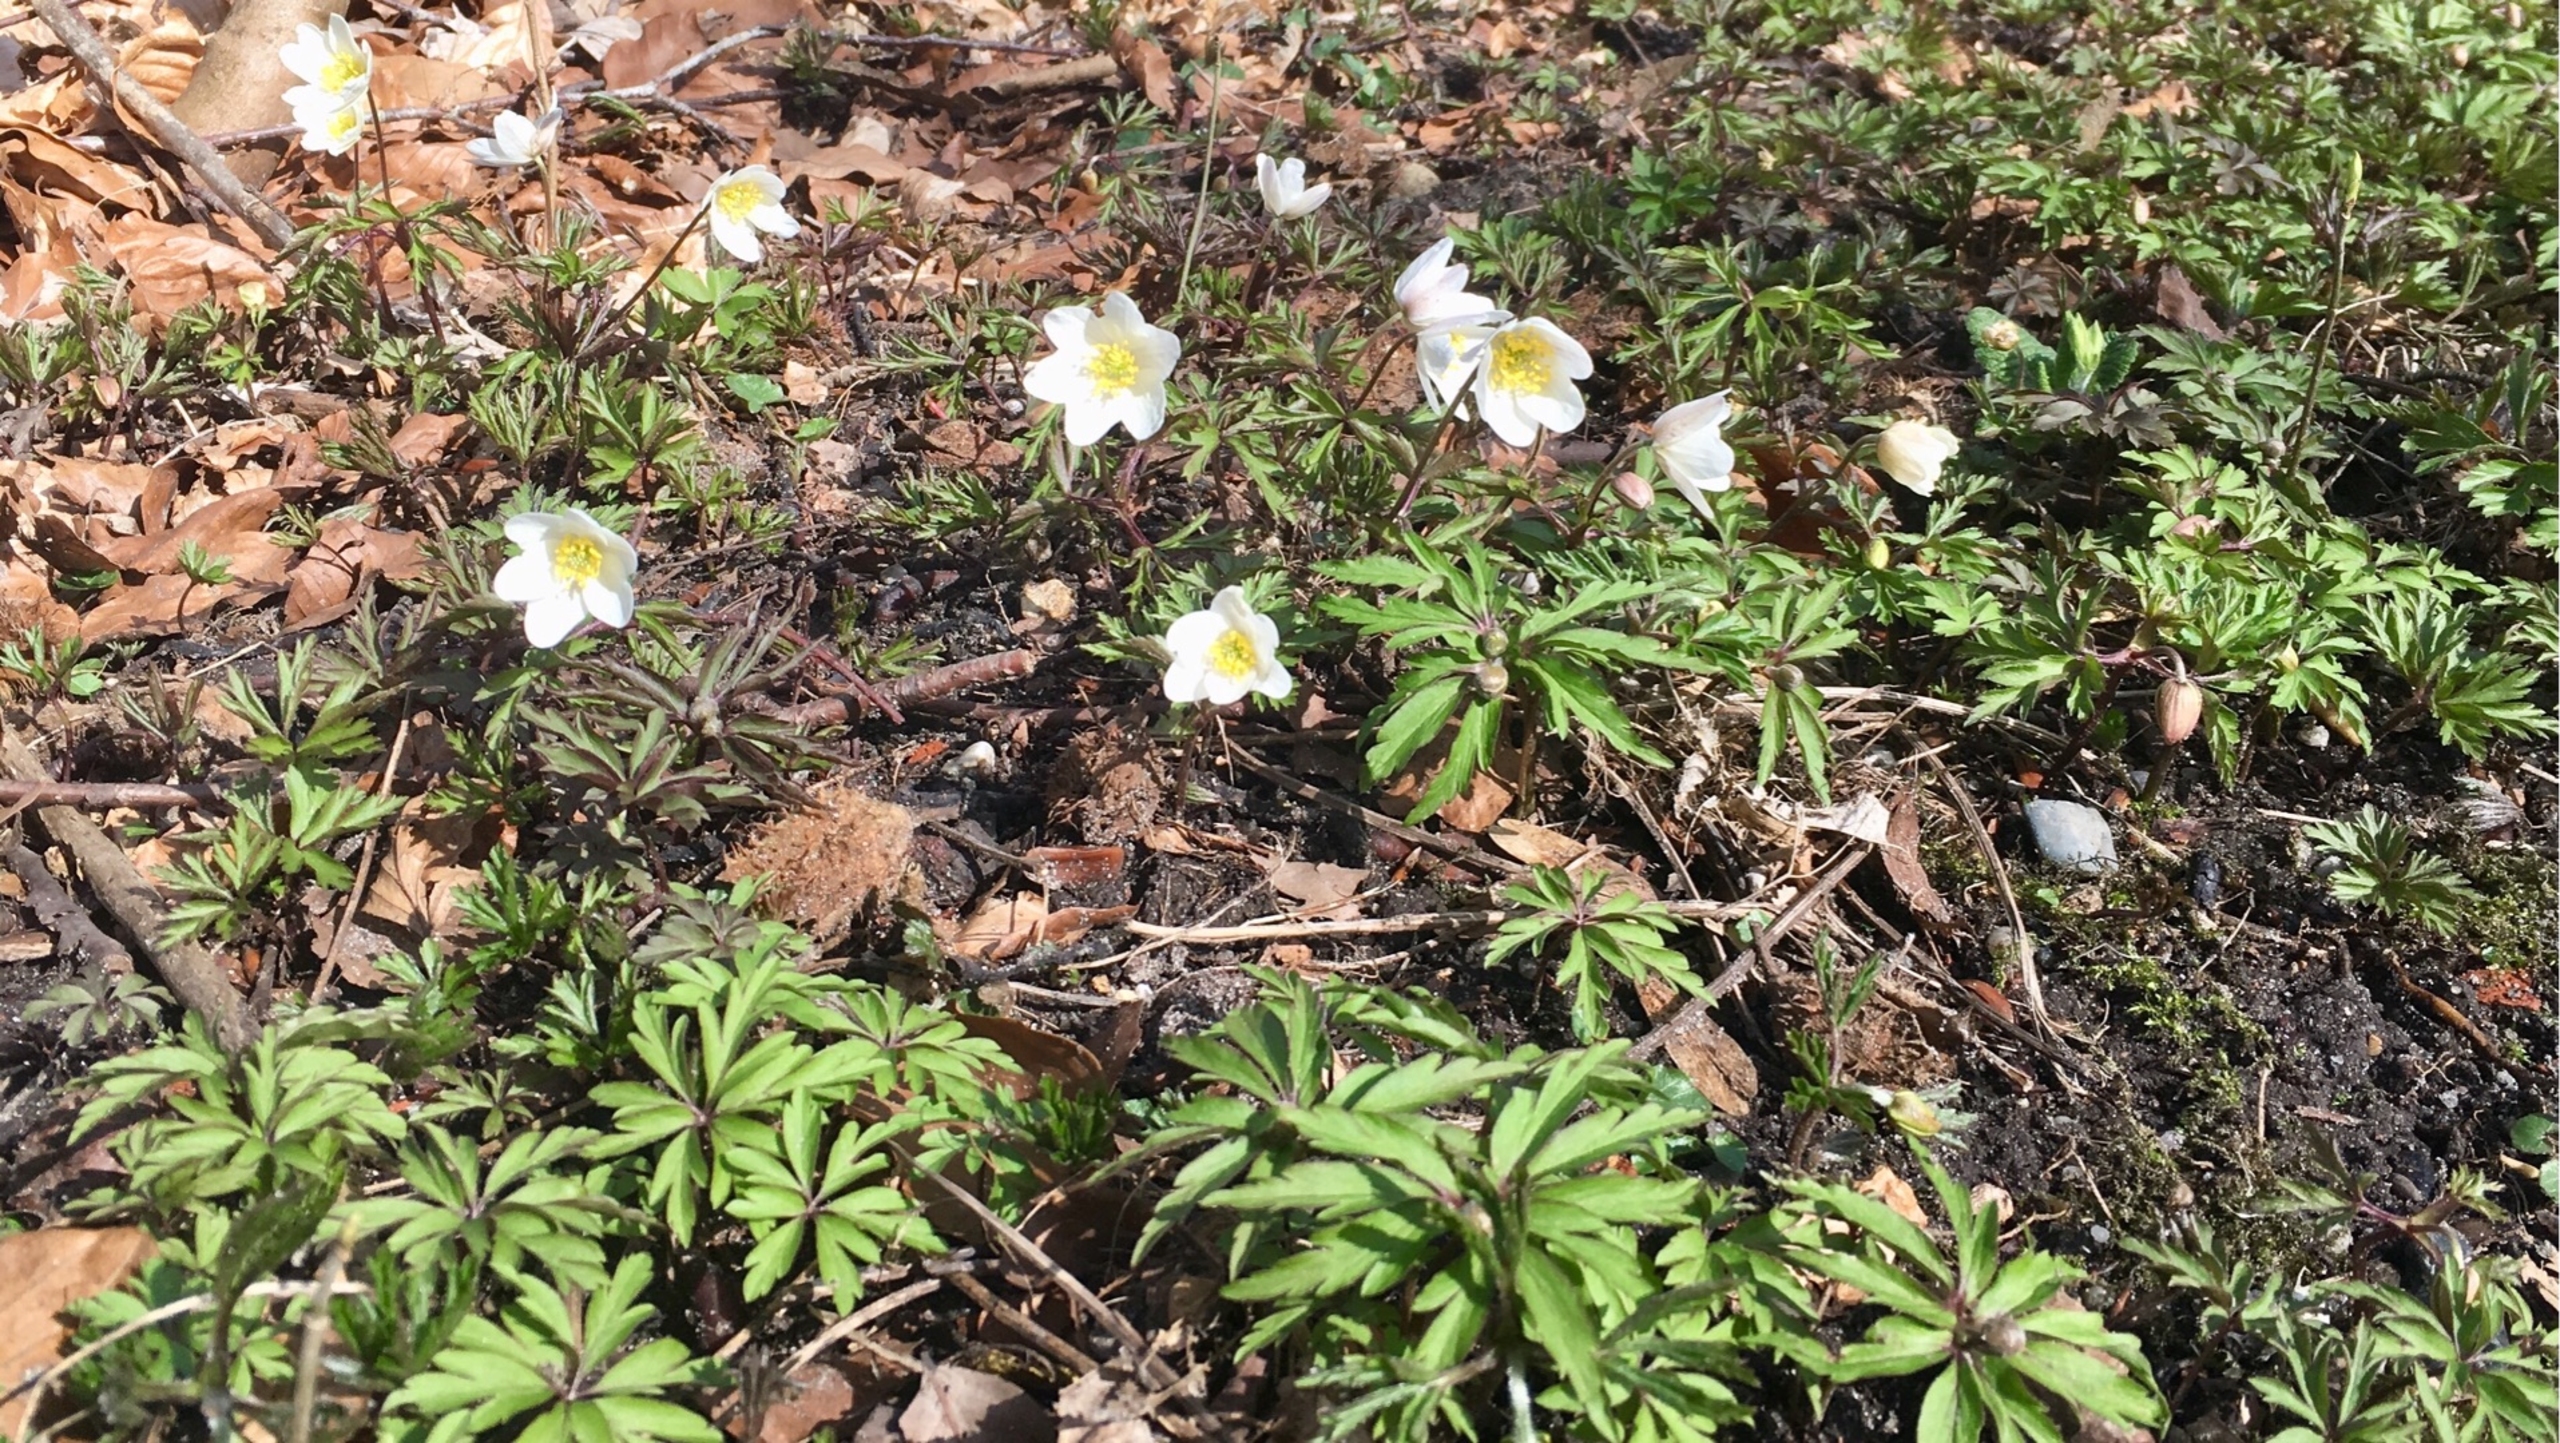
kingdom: Plantae
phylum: Tracheophyta
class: Magnoliopsida
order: Ranunculales
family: Ranunculaceae
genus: Anemone
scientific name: Anemone nemorosa
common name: Hvid anemone
